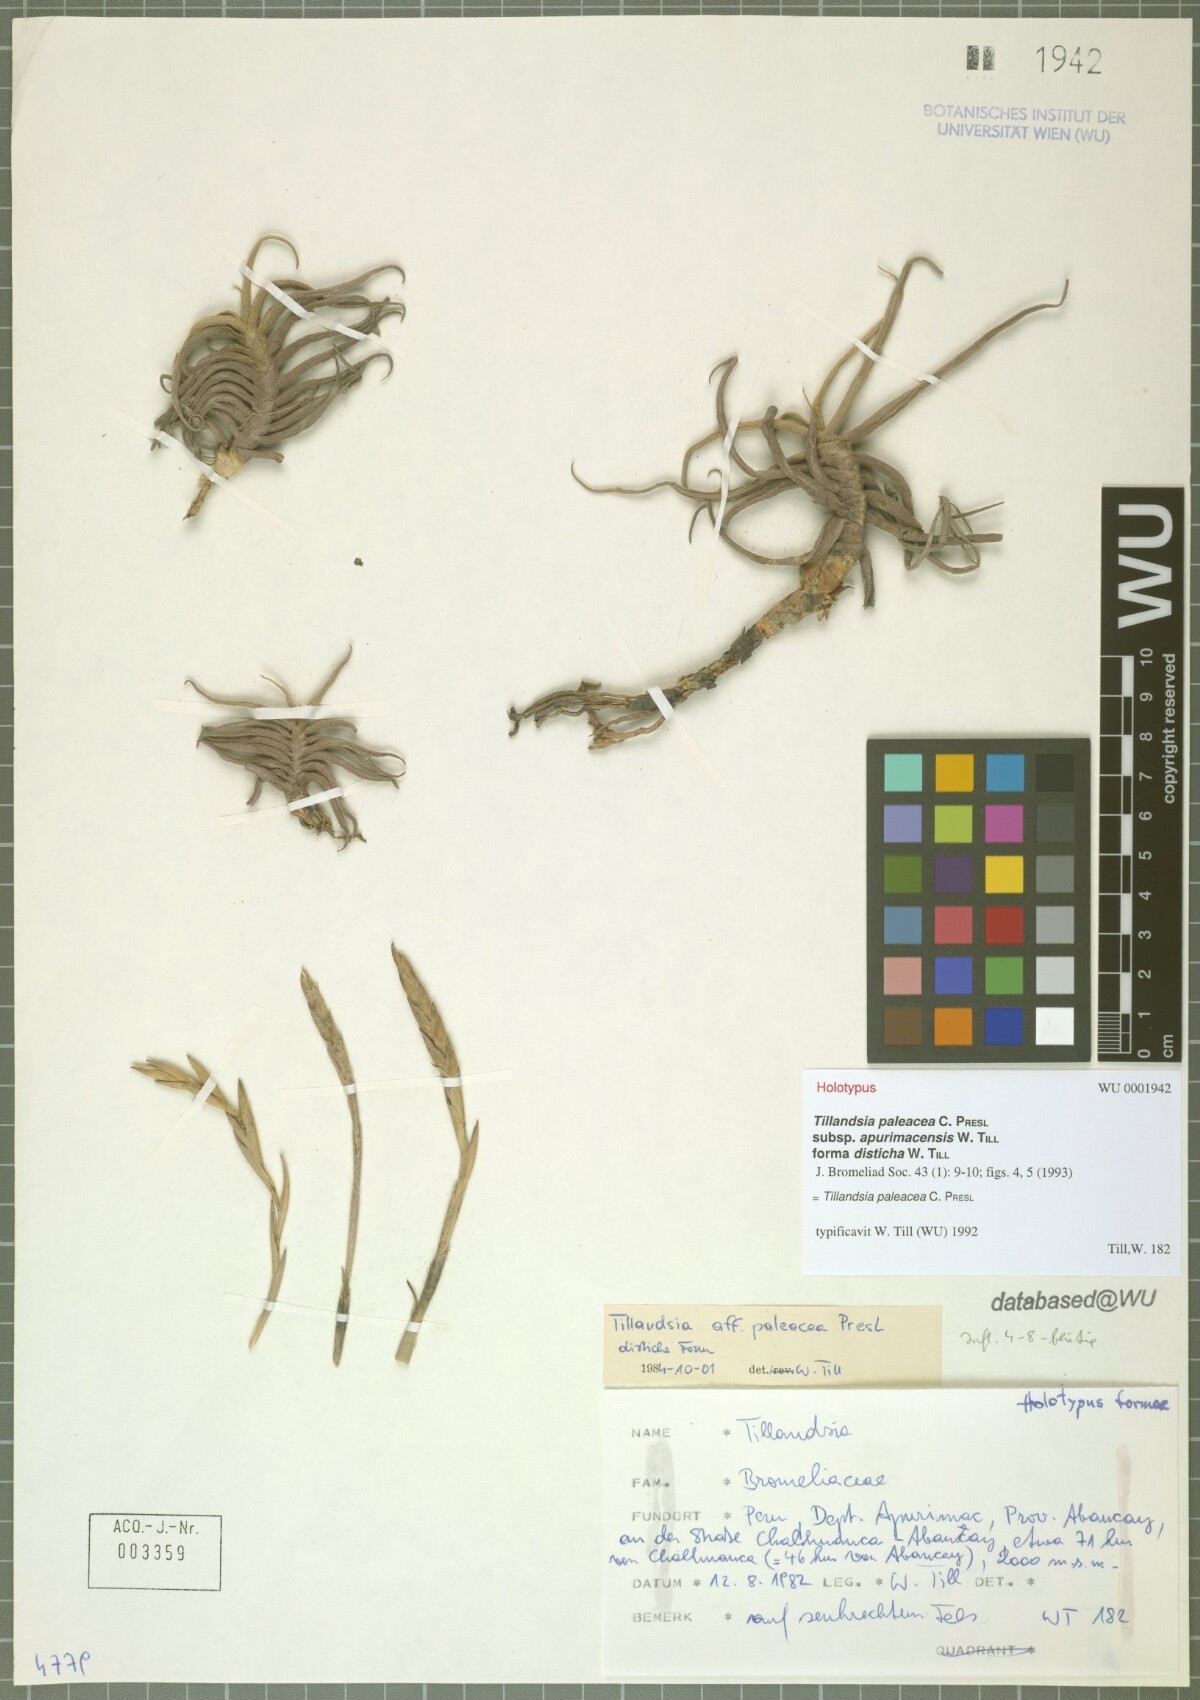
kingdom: Plantae
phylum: Tracheophyta
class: Liliopsida
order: Poales
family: Bromeliaceae
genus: Tillandsia
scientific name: Tillandsia paleacea
